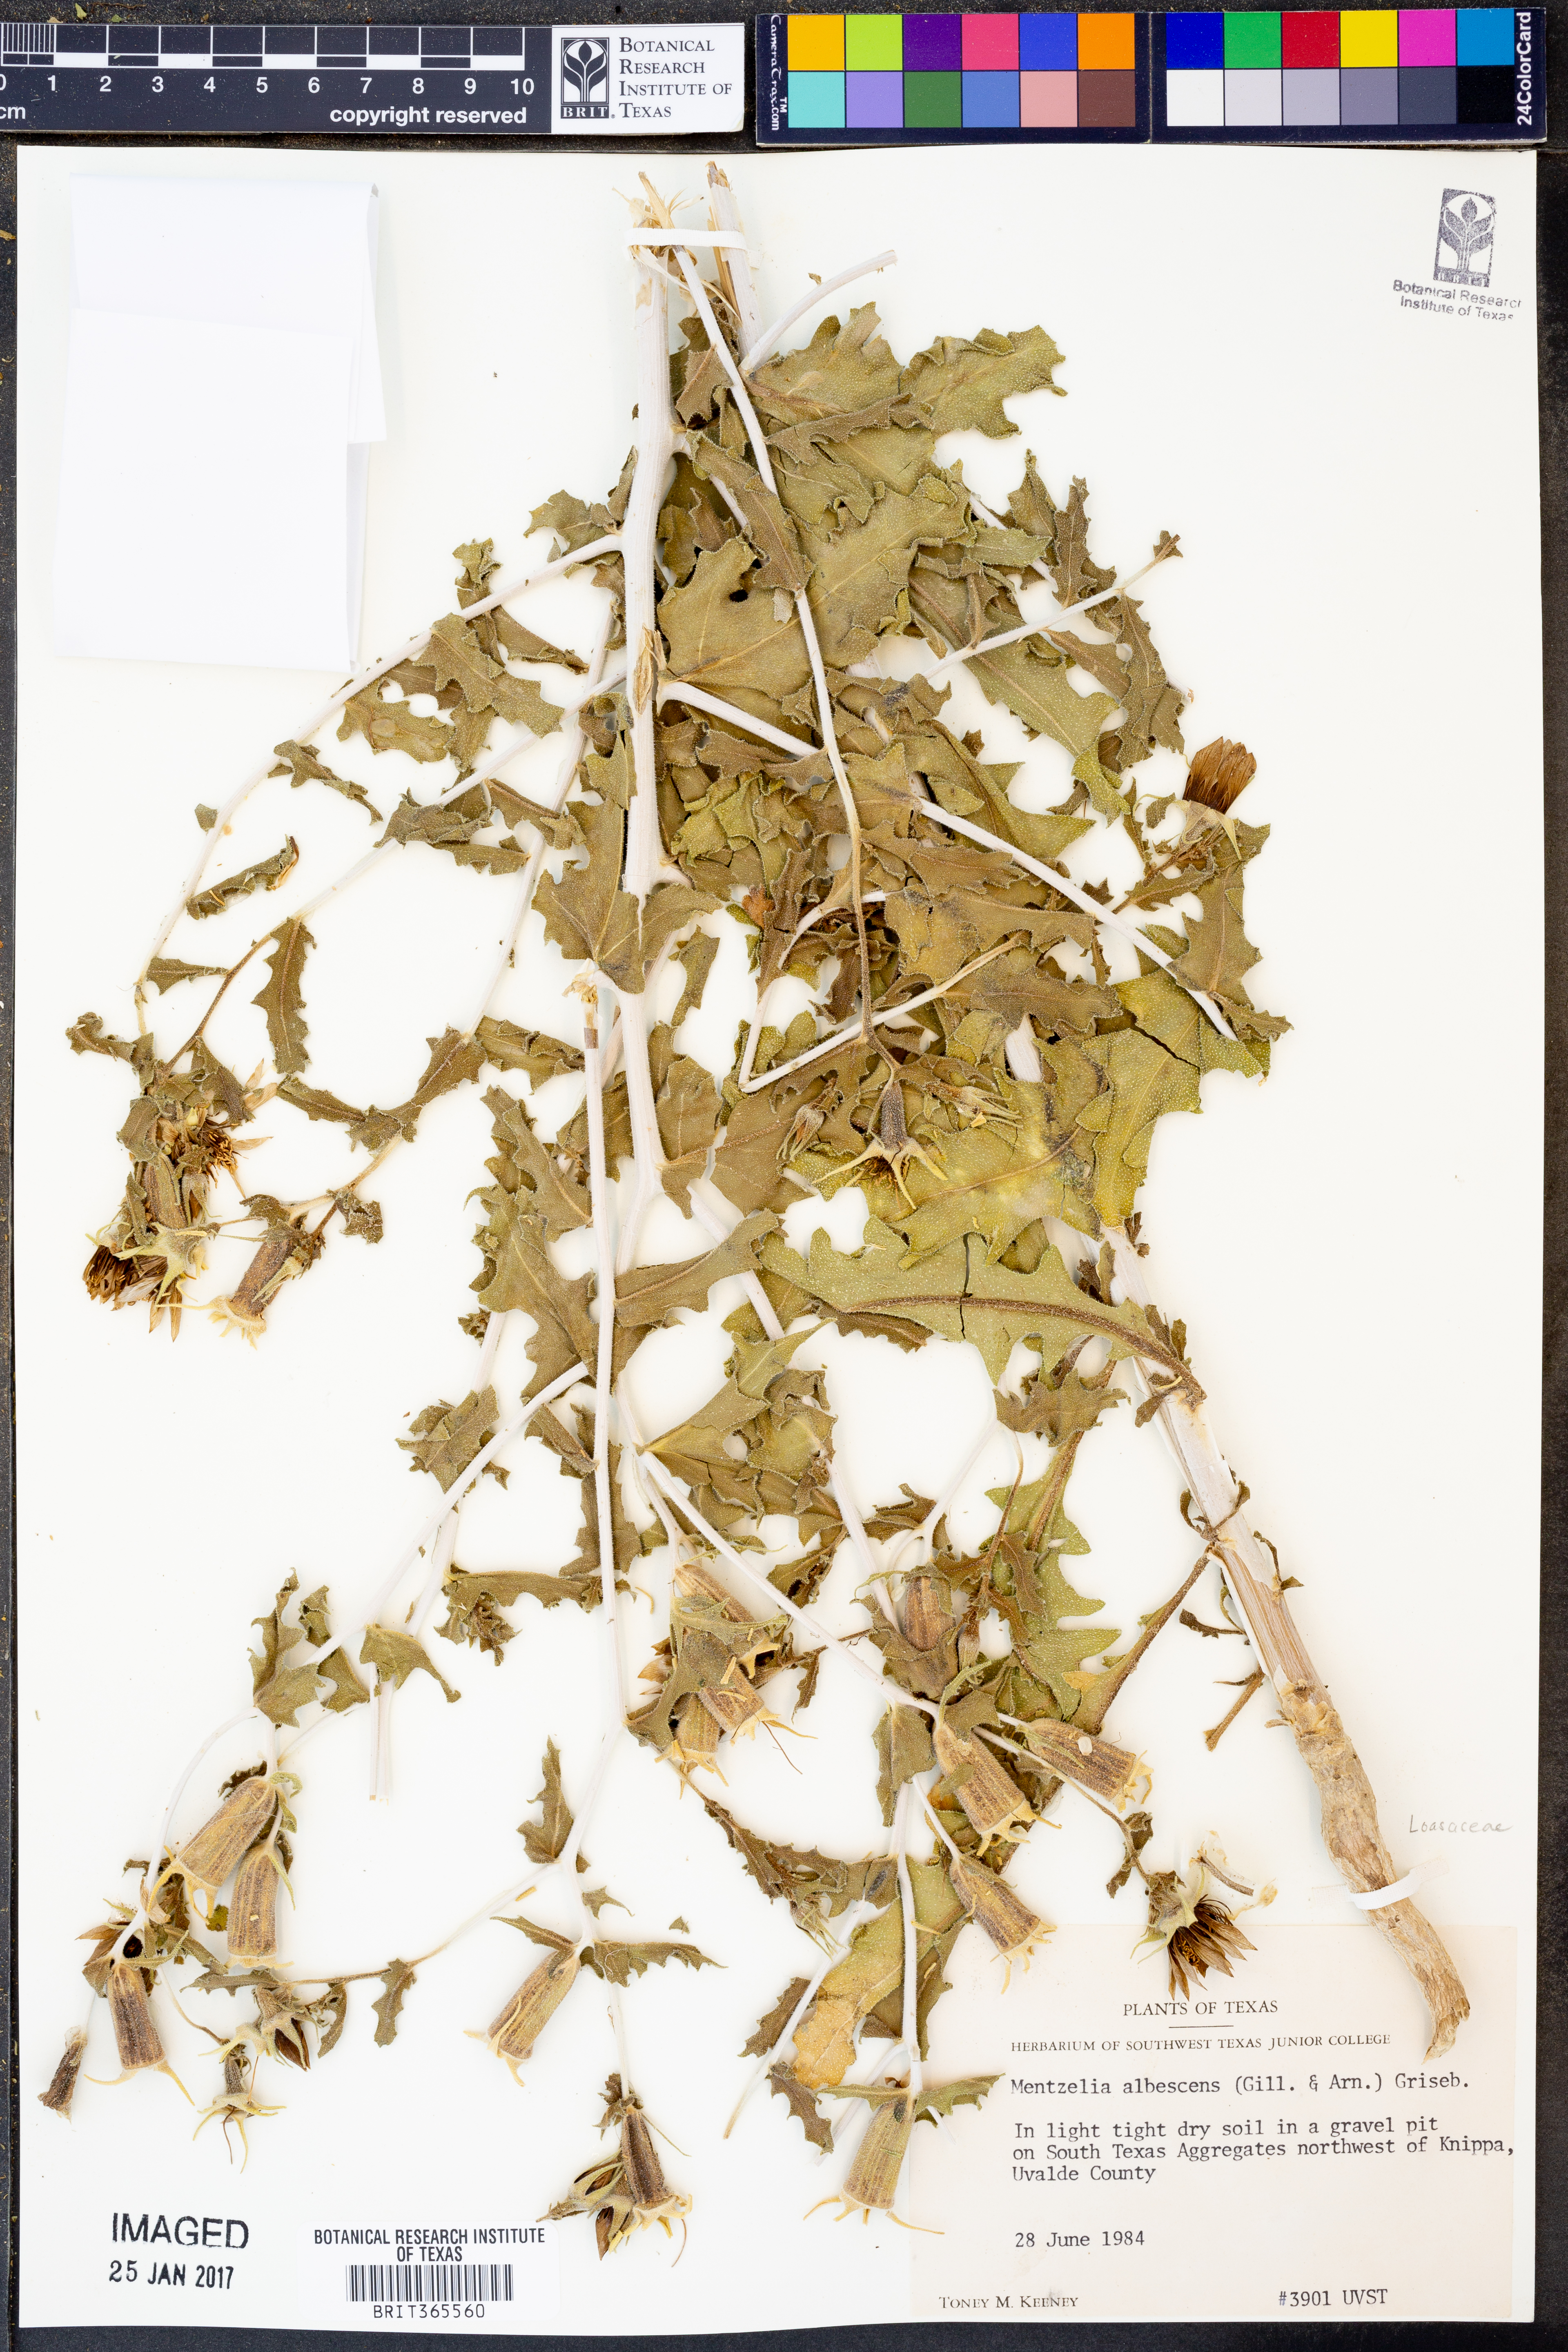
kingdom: Plantae
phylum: Tracheophyta
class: Magnoliopsida
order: Cornales
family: Loasaceae
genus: Mentzelia
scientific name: Mentzelia albescens
